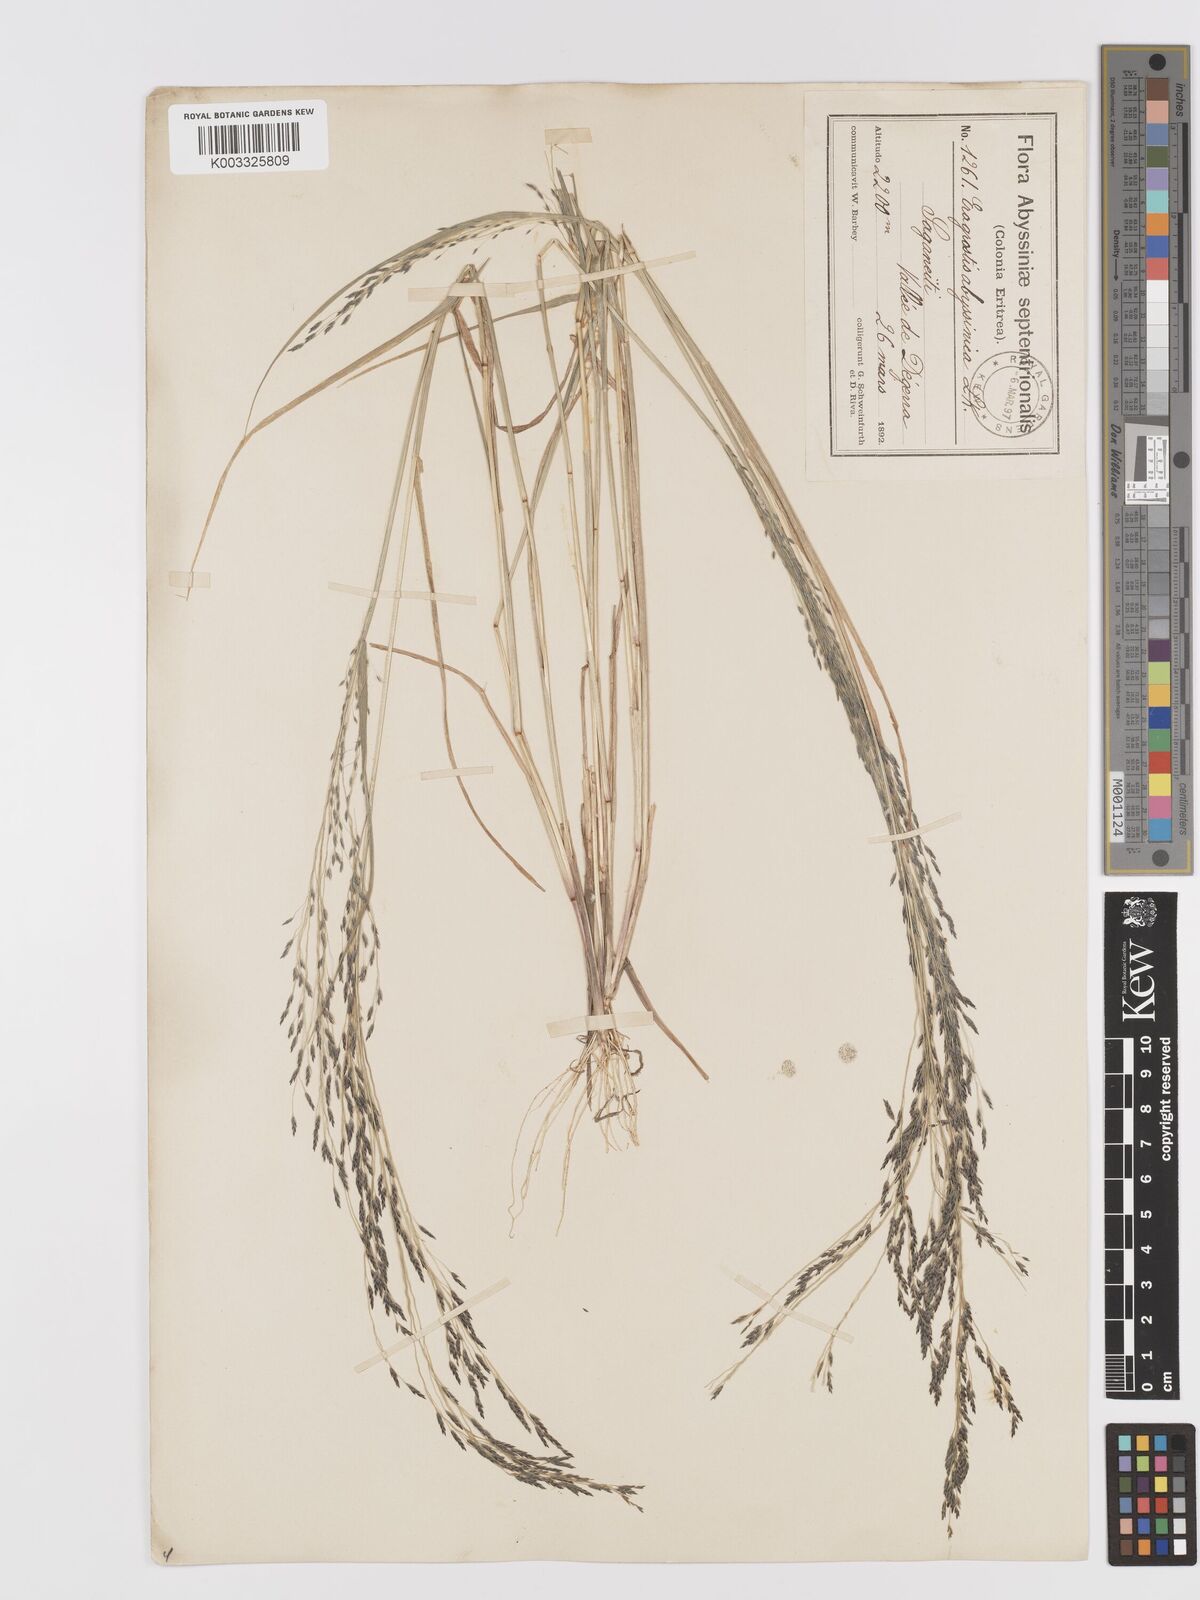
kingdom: Plantae
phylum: Tracheophyta
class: Liliopsida
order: Poales
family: Poaceae
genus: Eragrostis
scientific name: Eragrostis tef
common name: Teff
